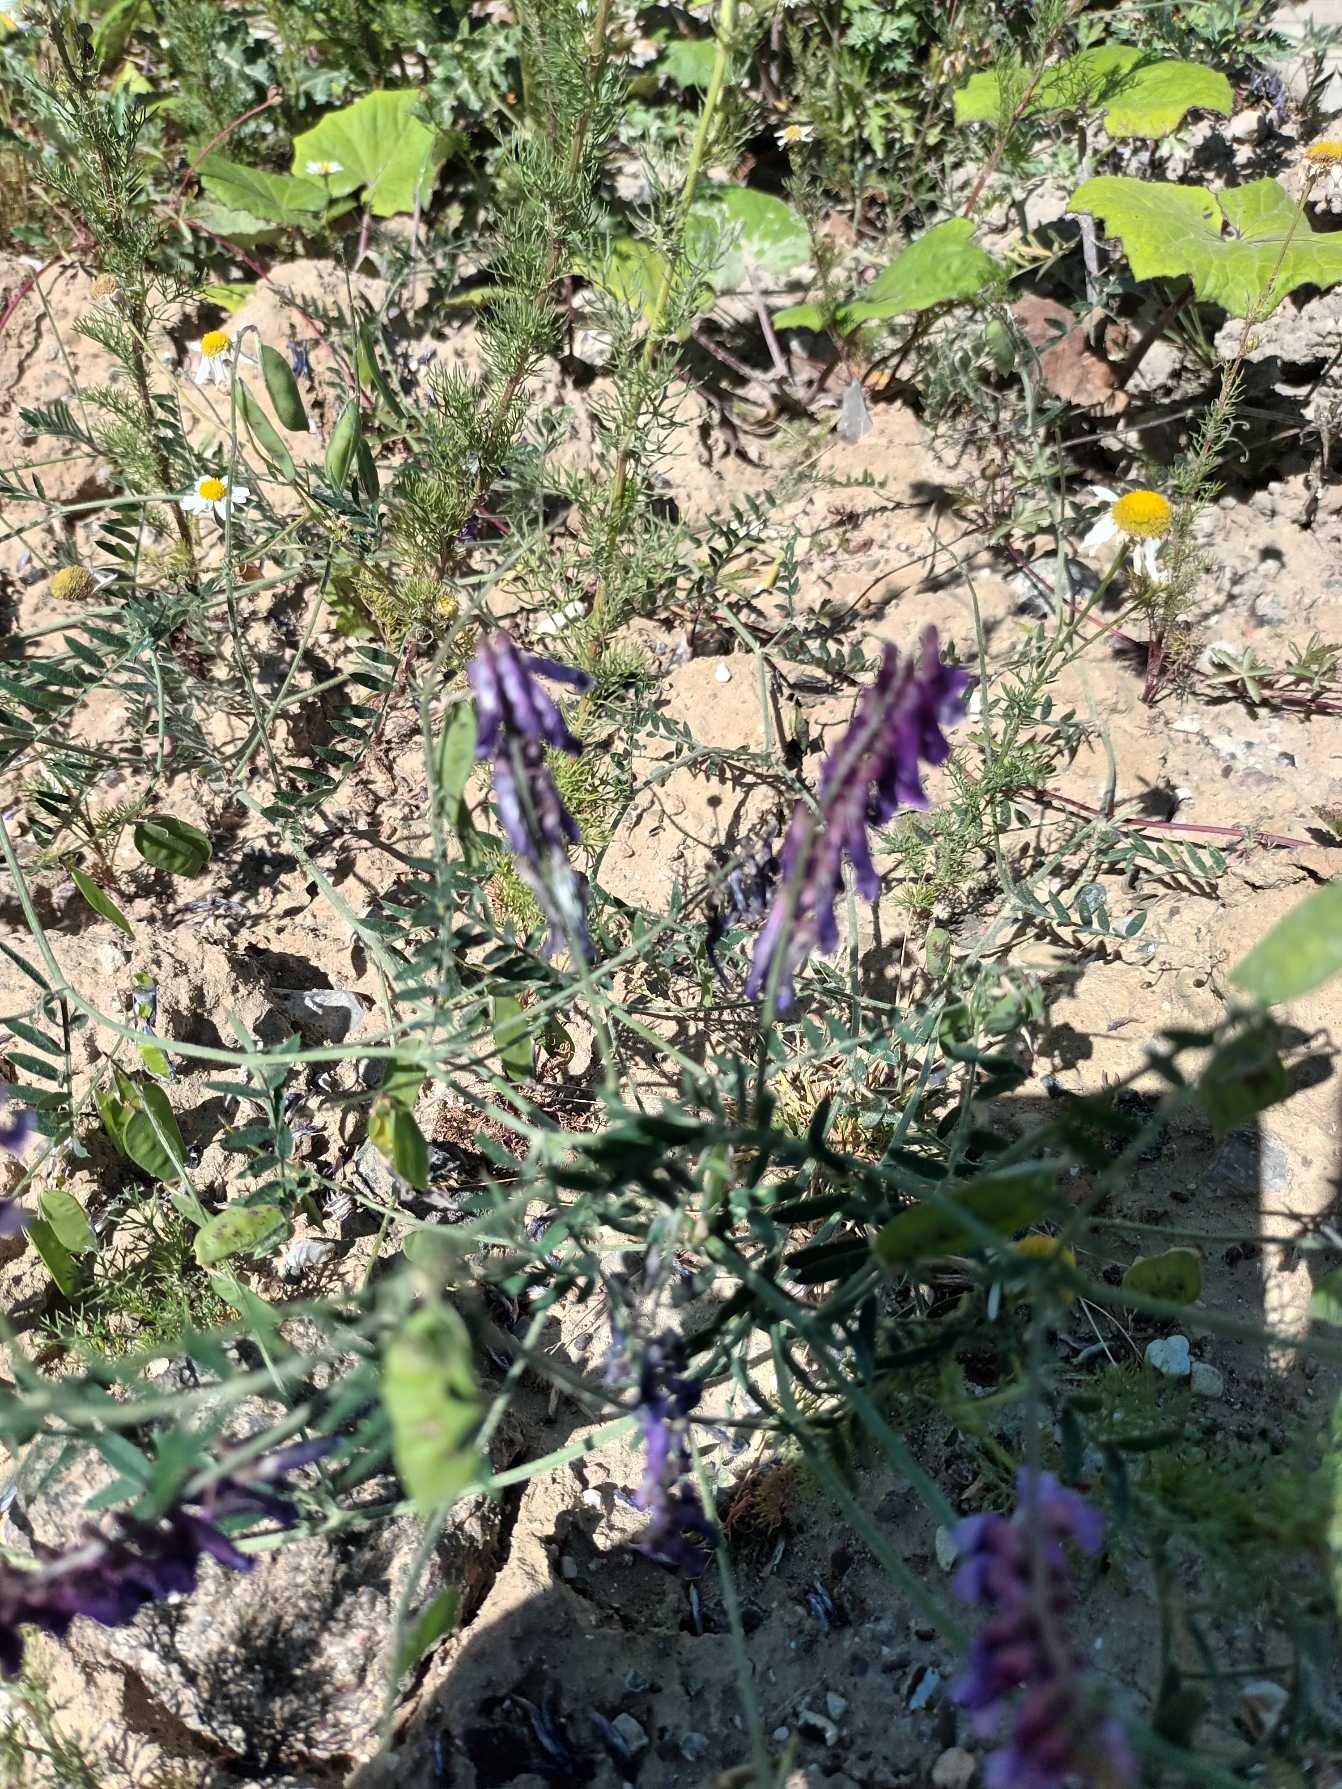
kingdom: Plantae
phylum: Tracheophyta
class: Magnoliopsida
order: Fabales
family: Fabaceae
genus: Vicia
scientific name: Vicia villosa
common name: Sand-vikke
